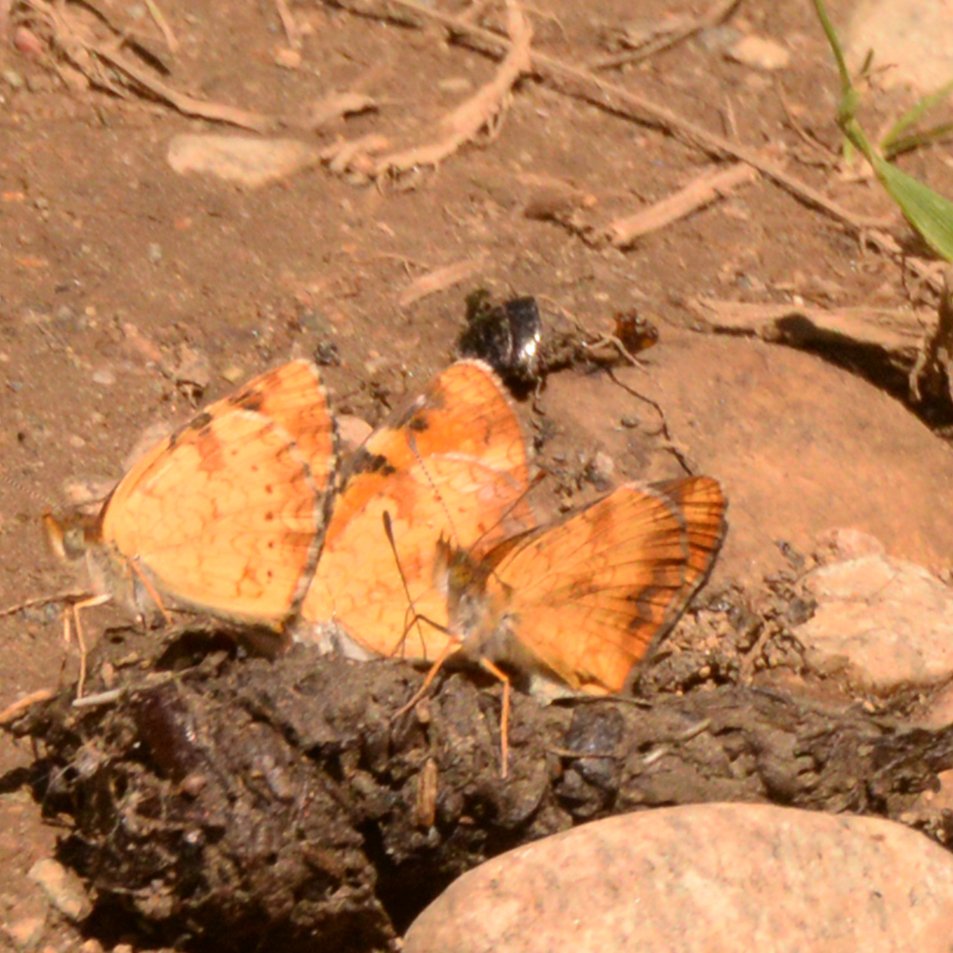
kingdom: Animalia
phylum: Arthropoda
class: Insecta
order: Lepidoptera
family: Nymphalidae
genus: Phyciodes
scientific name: Phyciodes tharos
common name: Northern Crescent
